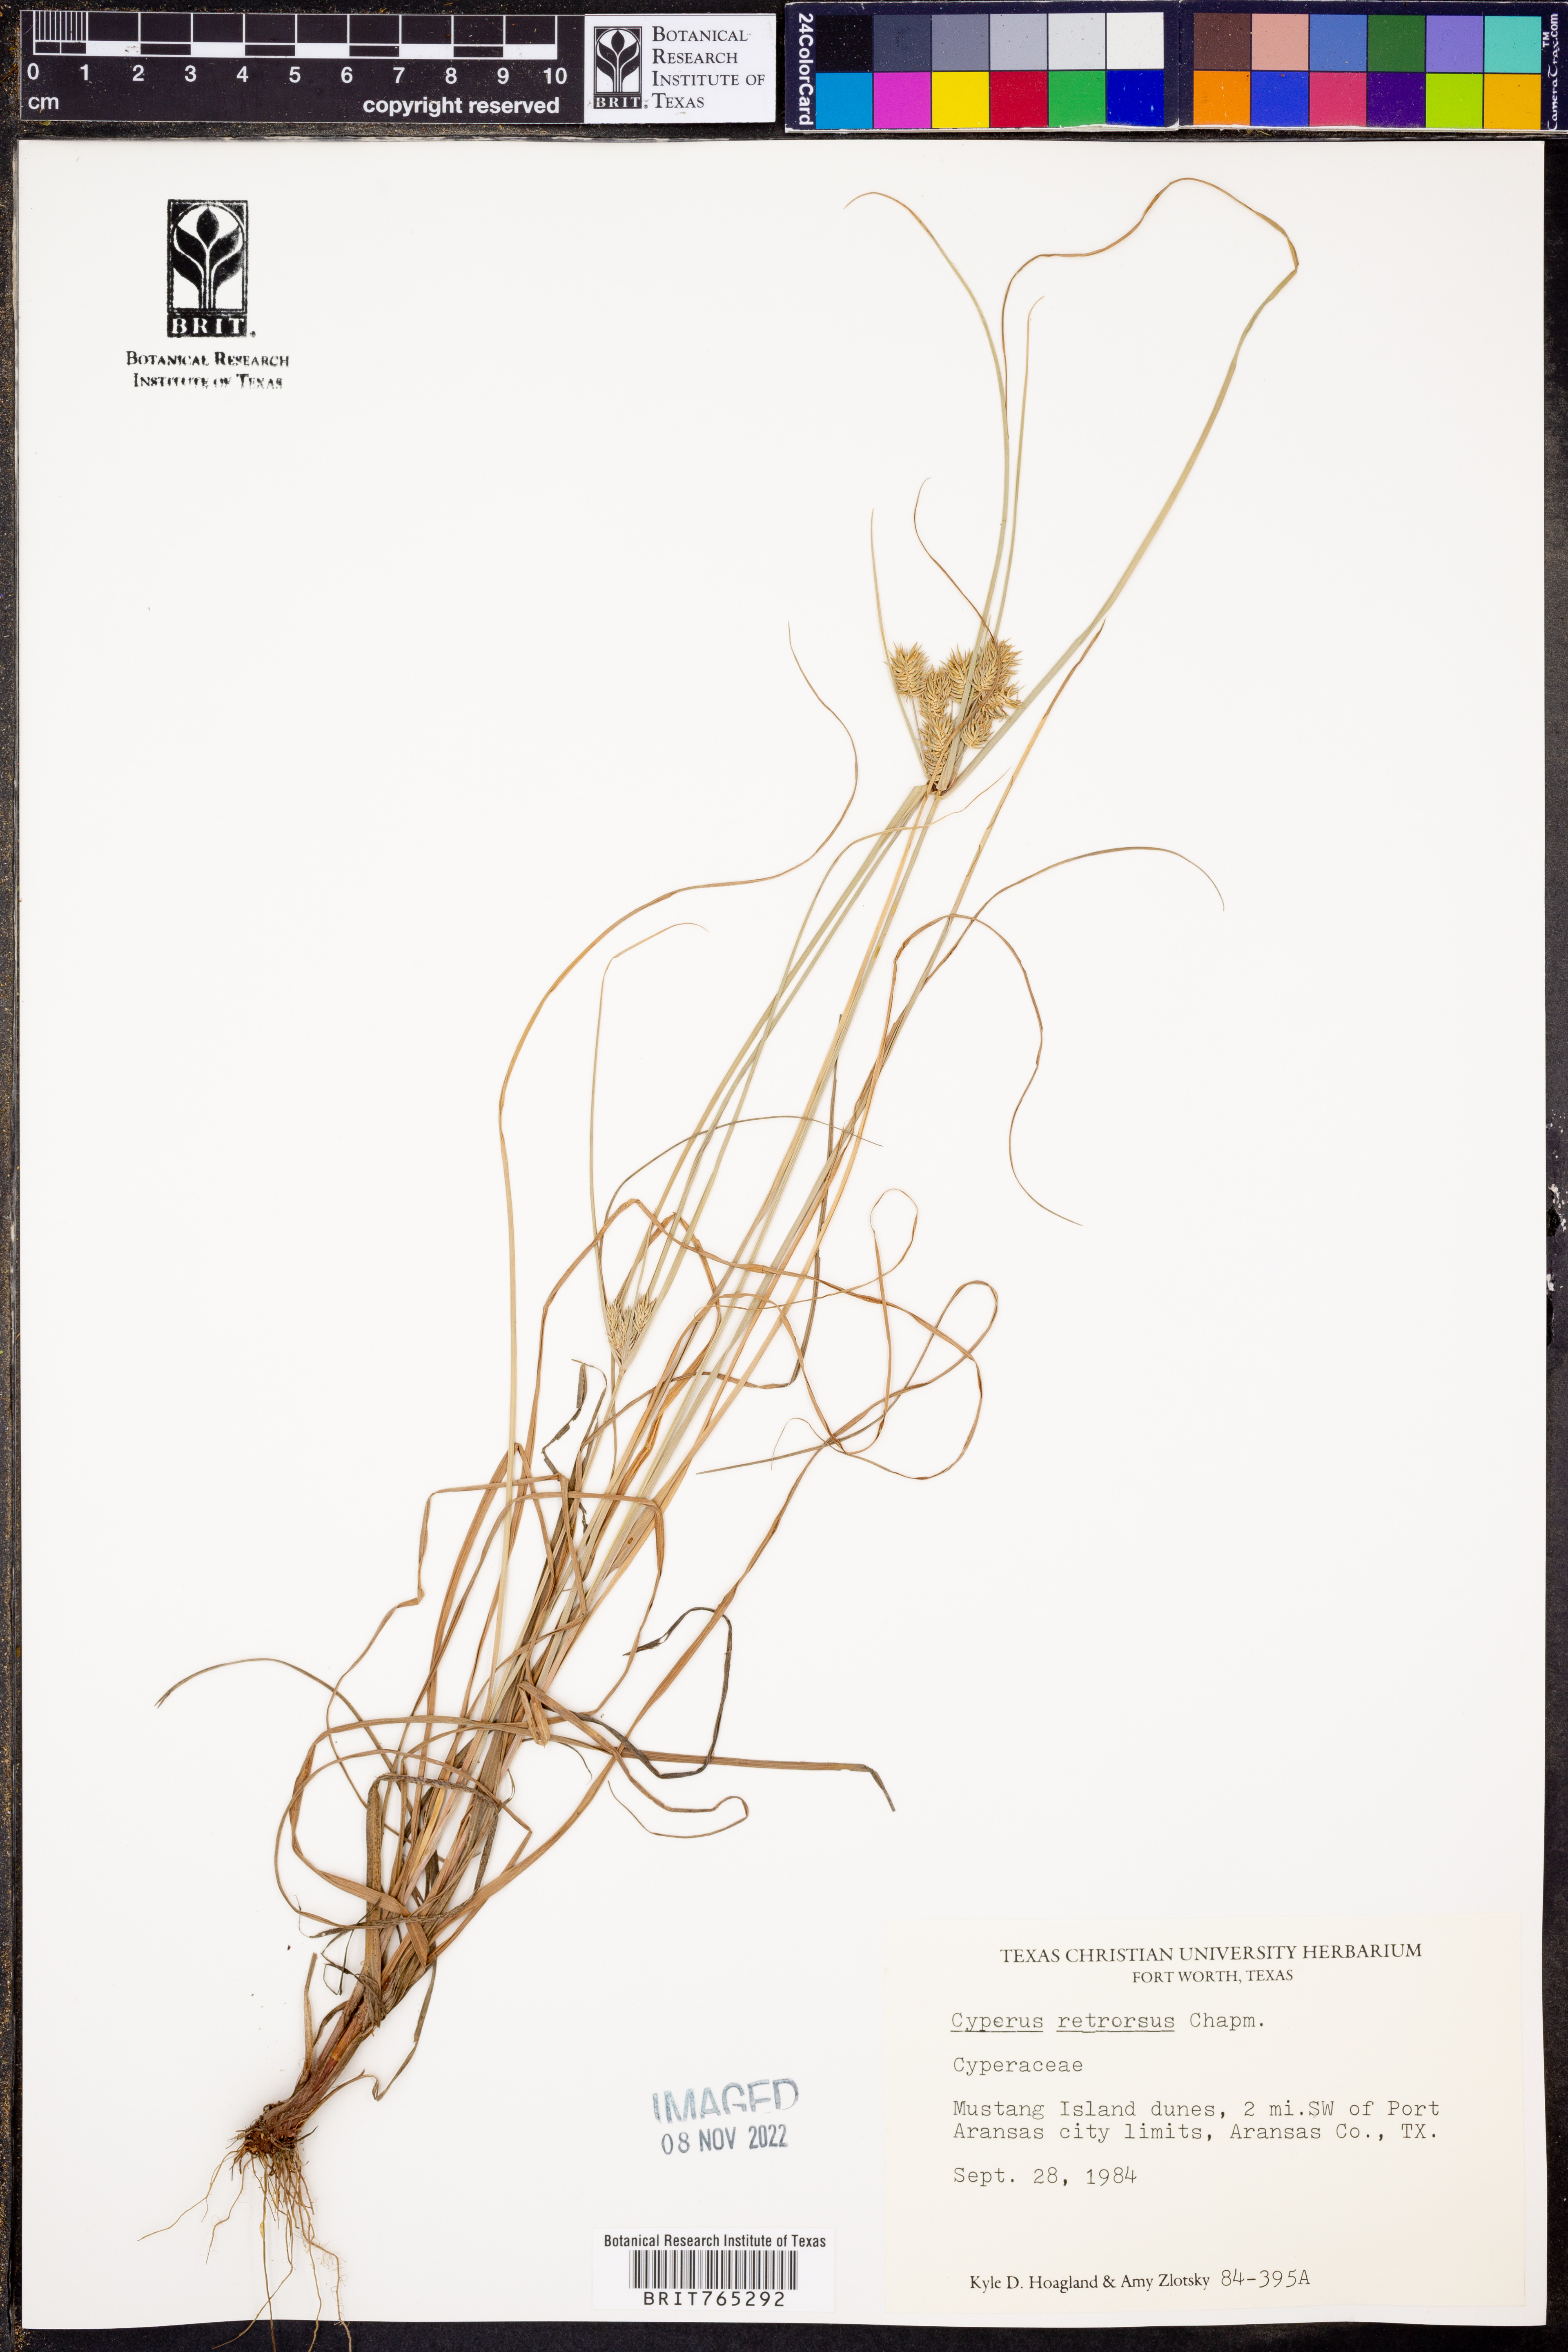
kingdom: Plantae
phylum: Tracheophyta
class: Liliopsida
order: Poales
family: Cyperaceae
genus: Cyperus
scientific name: Cyperus retrorsus
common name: Pinebarren flat sedge
